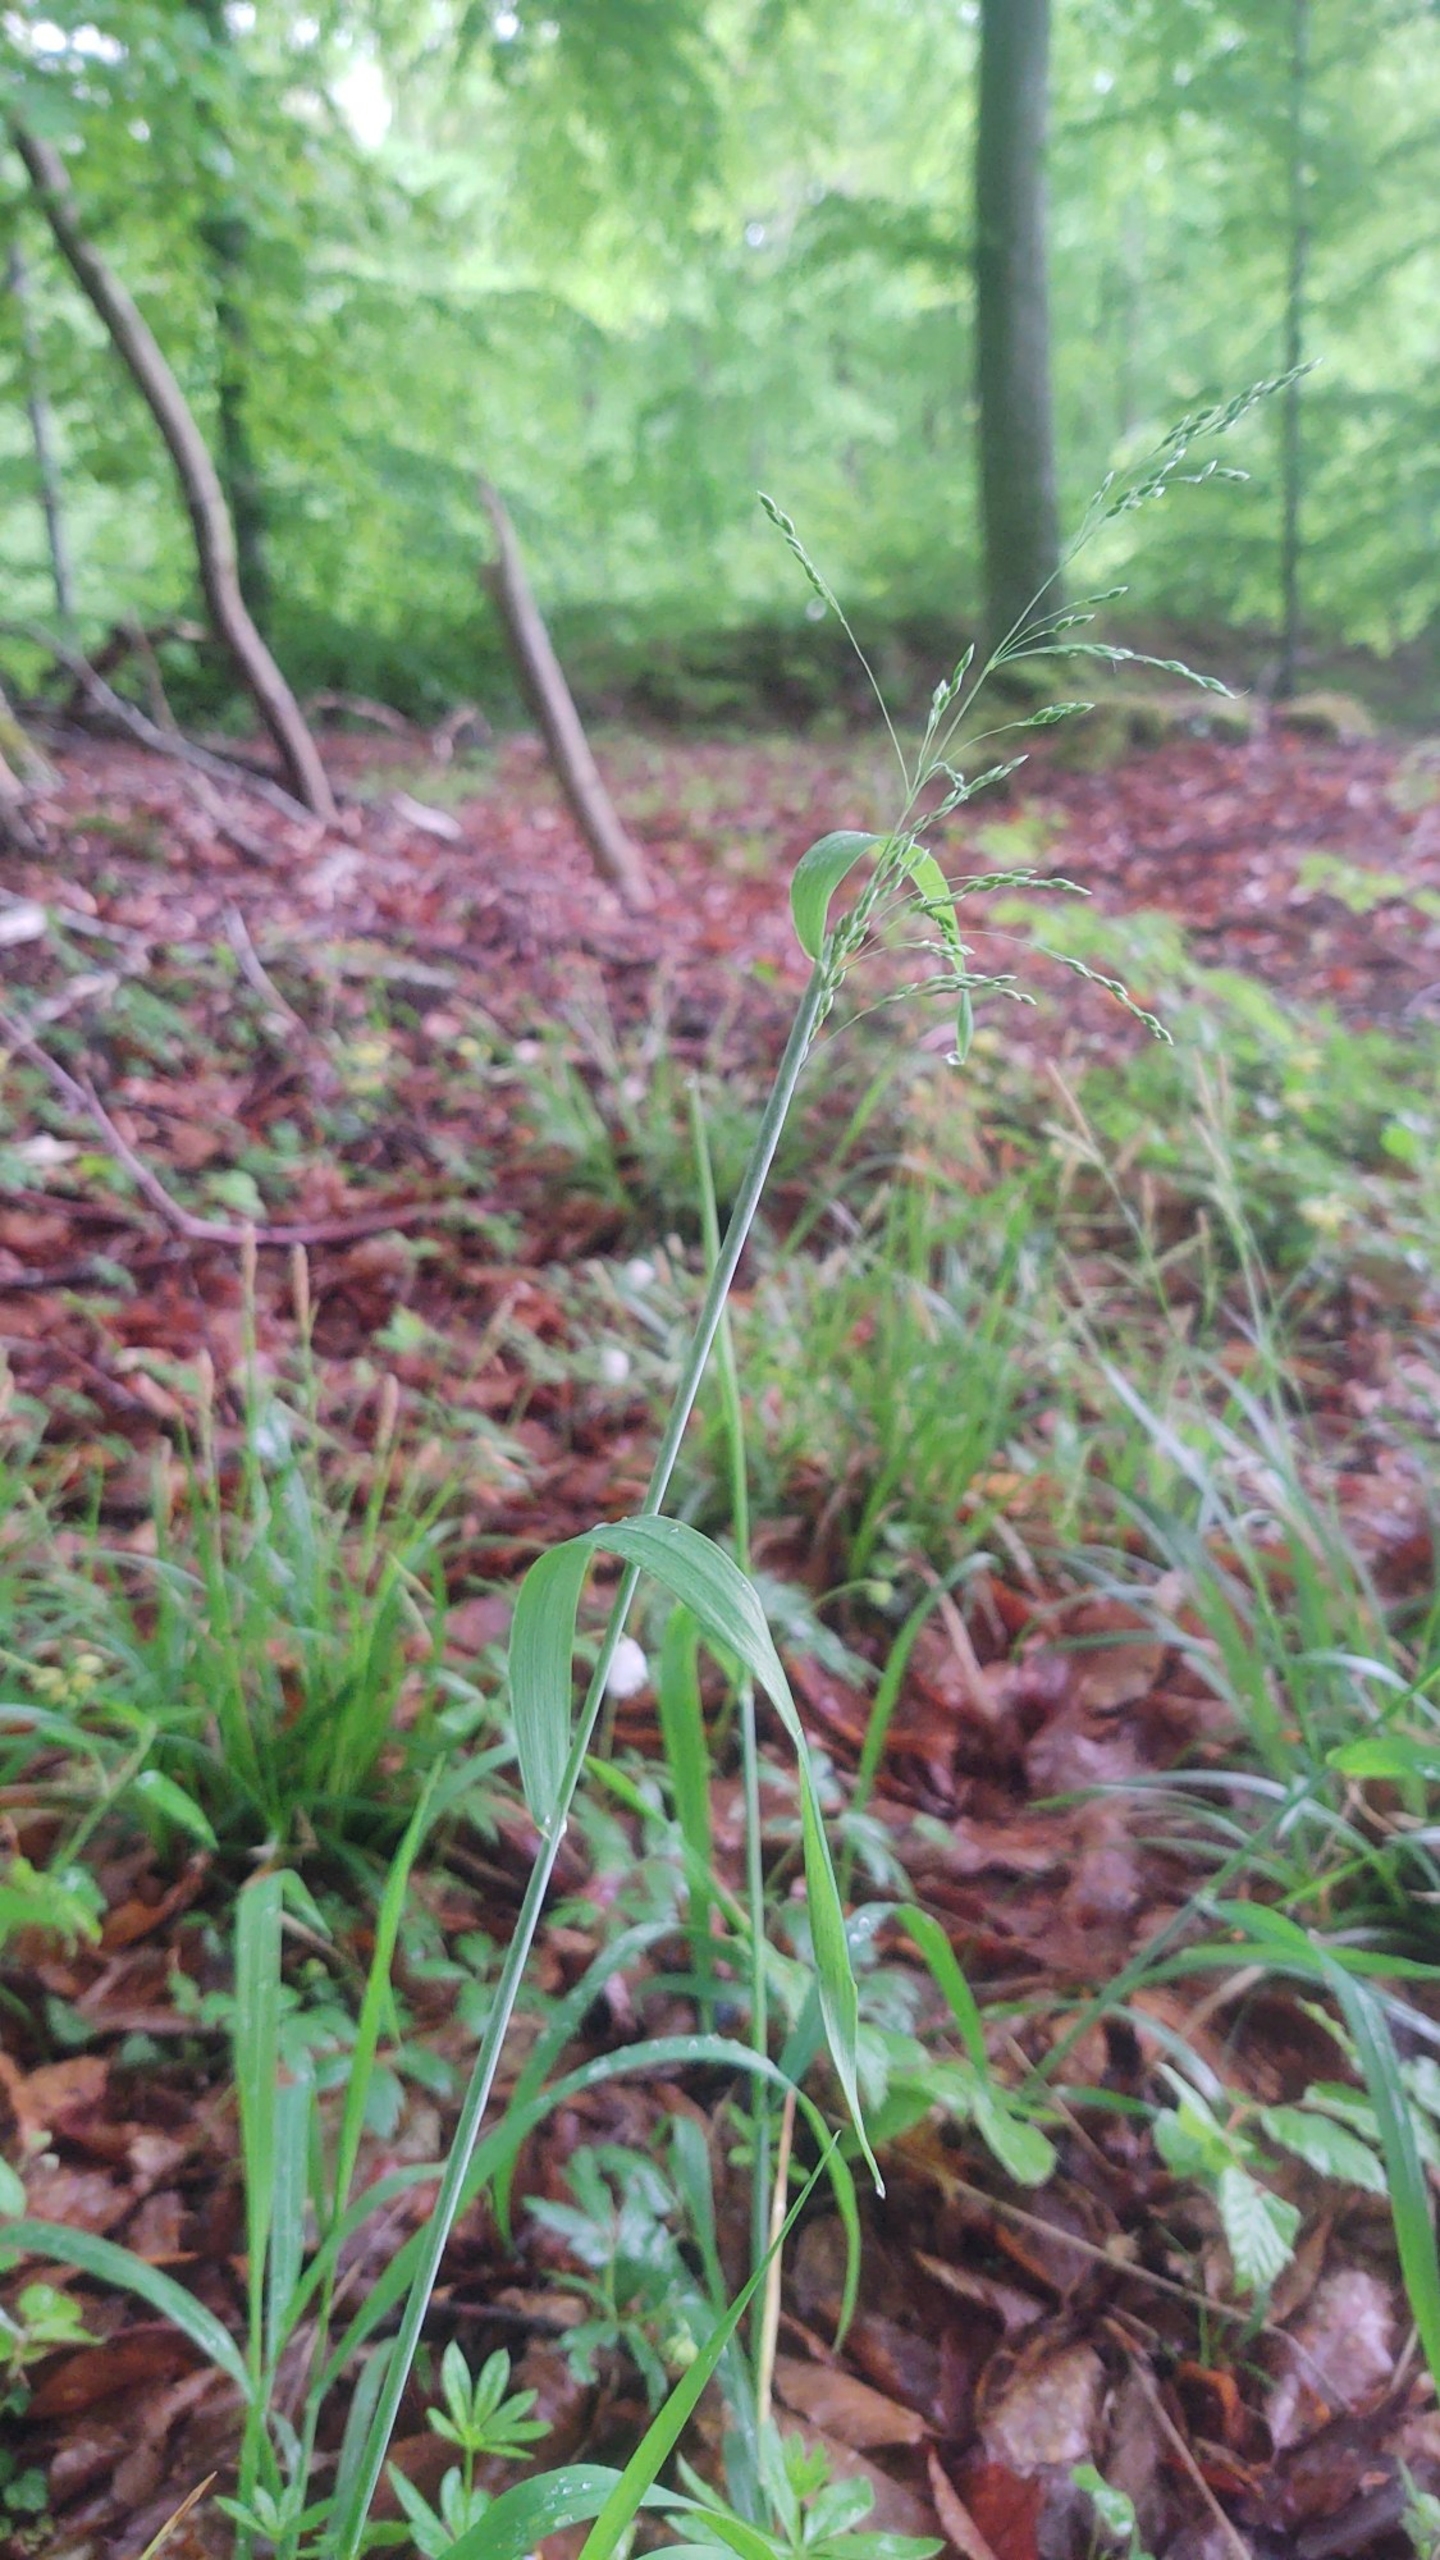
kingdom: Plantae
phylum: Tracheophyta
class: Liliopsida
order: Poales
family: Poaceae
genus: Milium
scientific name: Milium effusum
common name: Miliegræs
